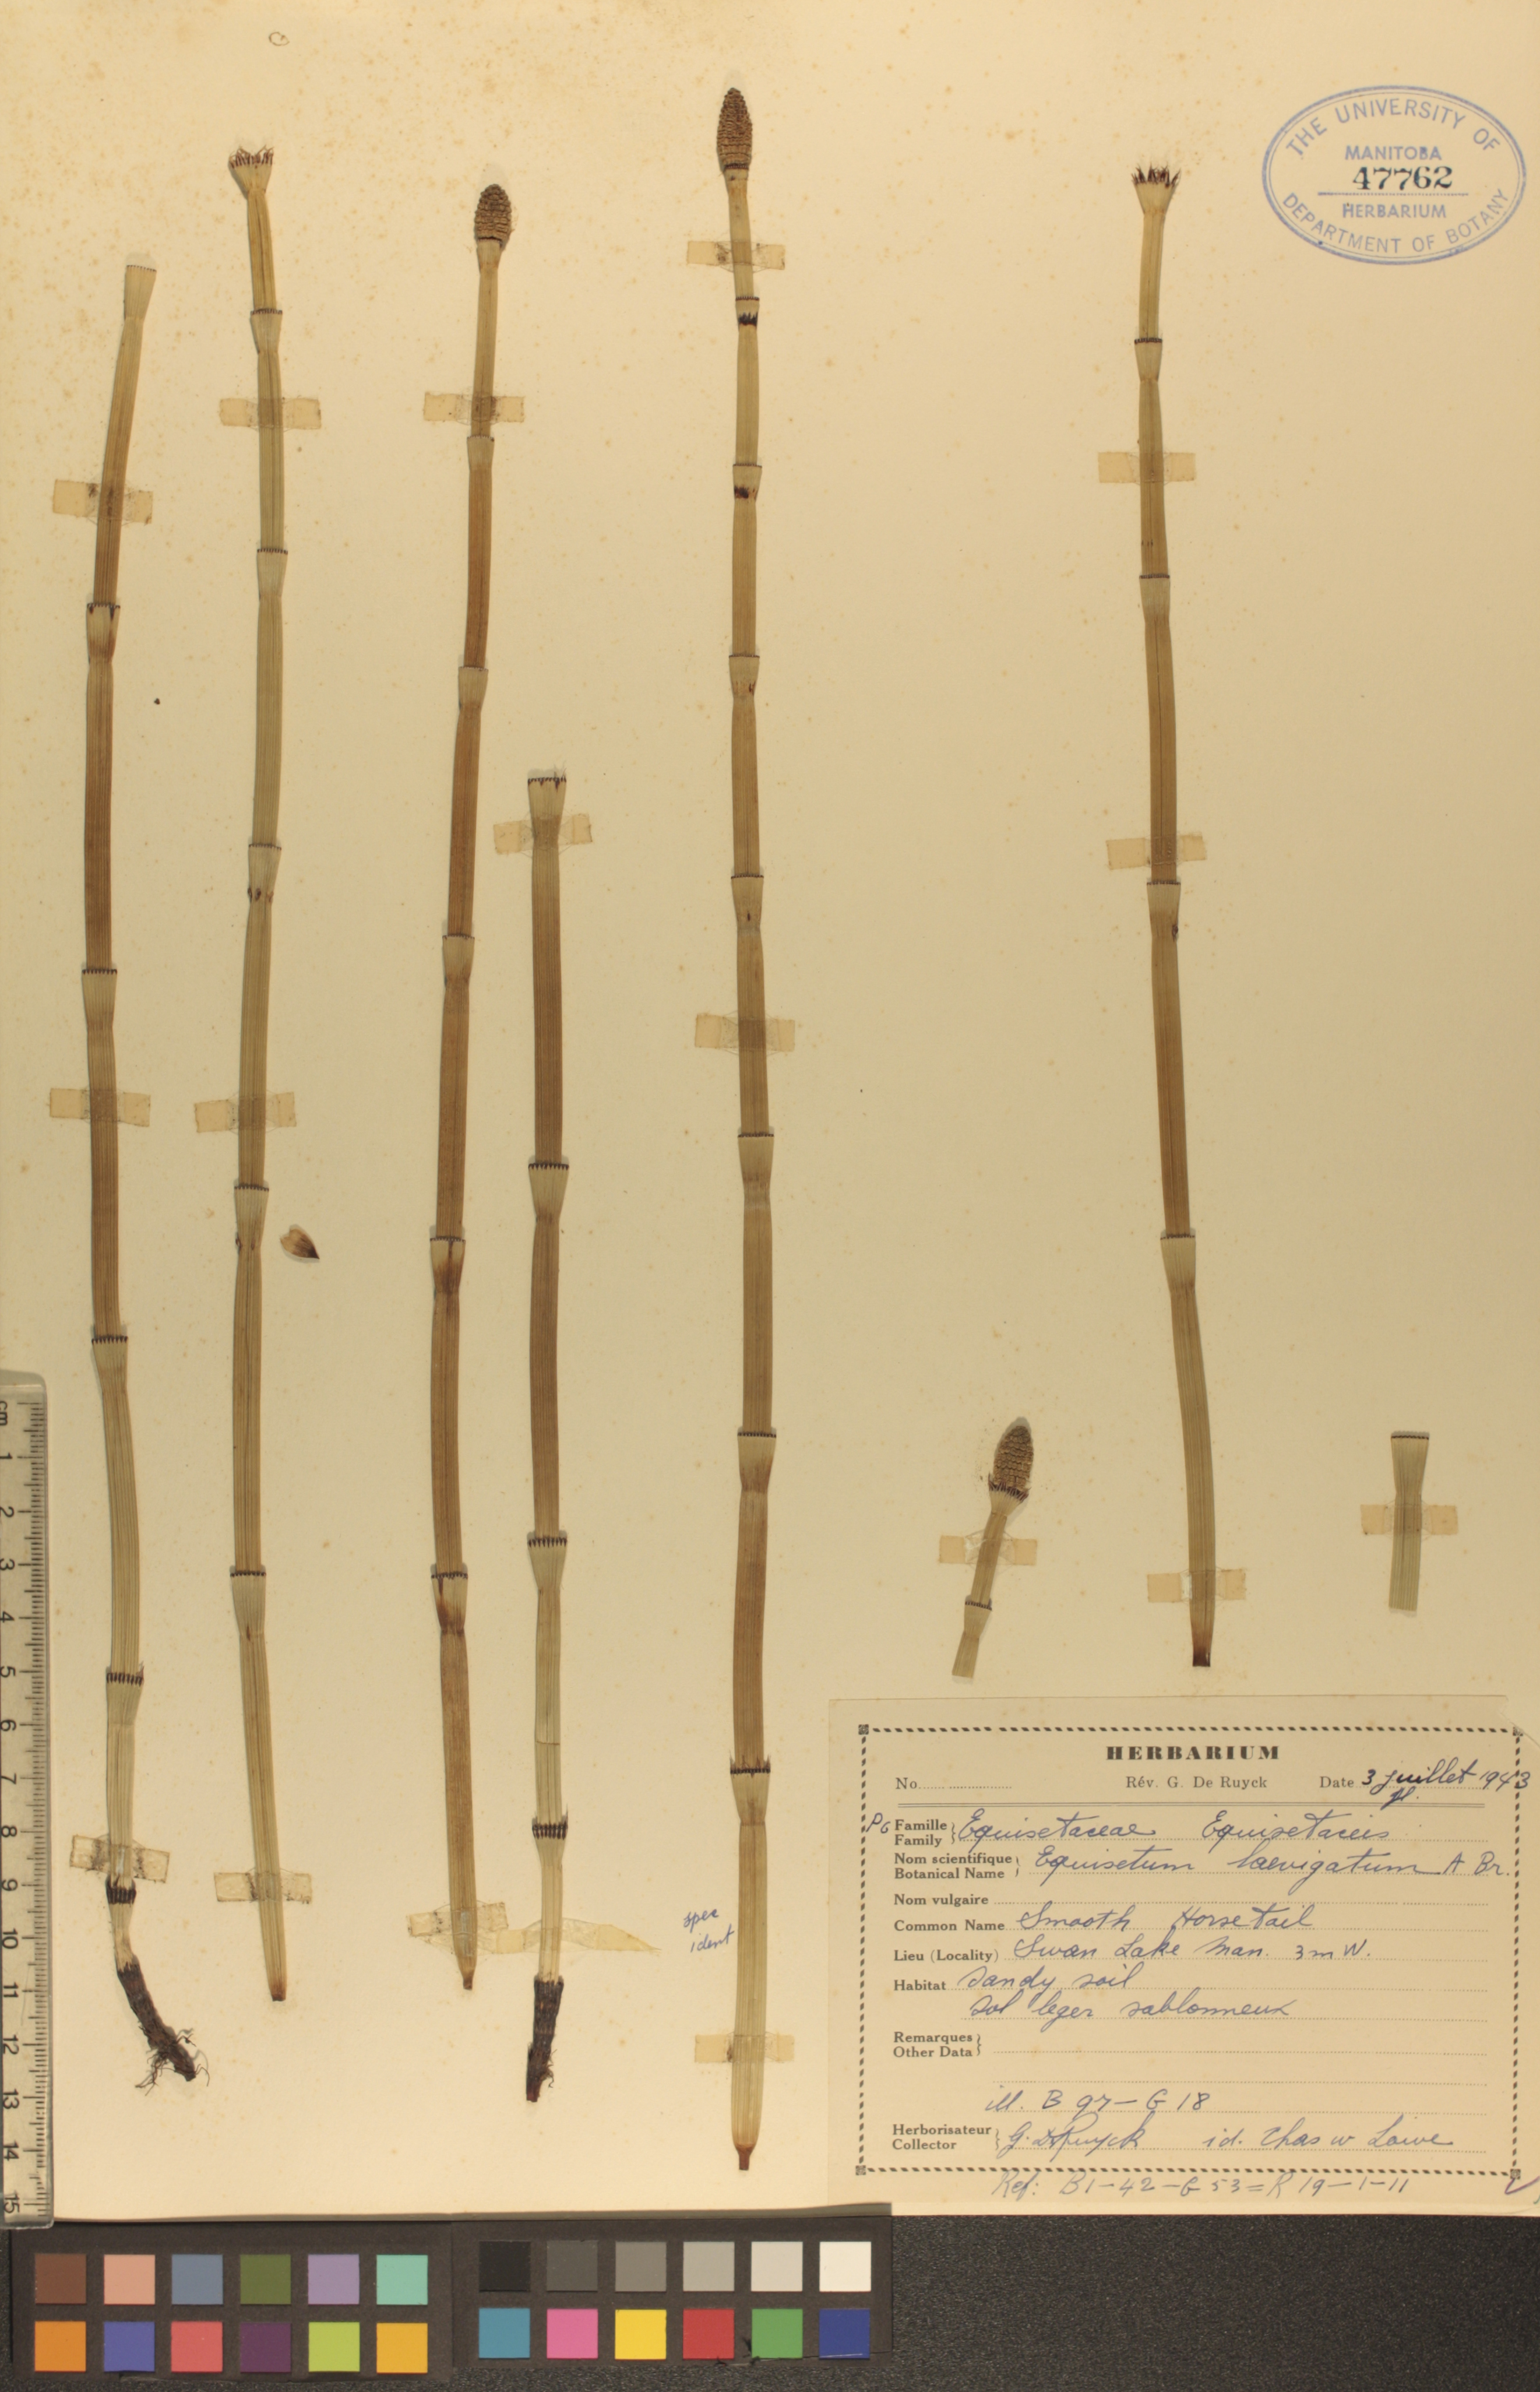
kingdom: Plantae
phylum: Tracheophyta
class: Polypodiopsida
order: Equisetales
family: Equisetaceae
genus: Equisetum
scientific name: Equisetum laevigatum
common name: Smooth scouring-rush
